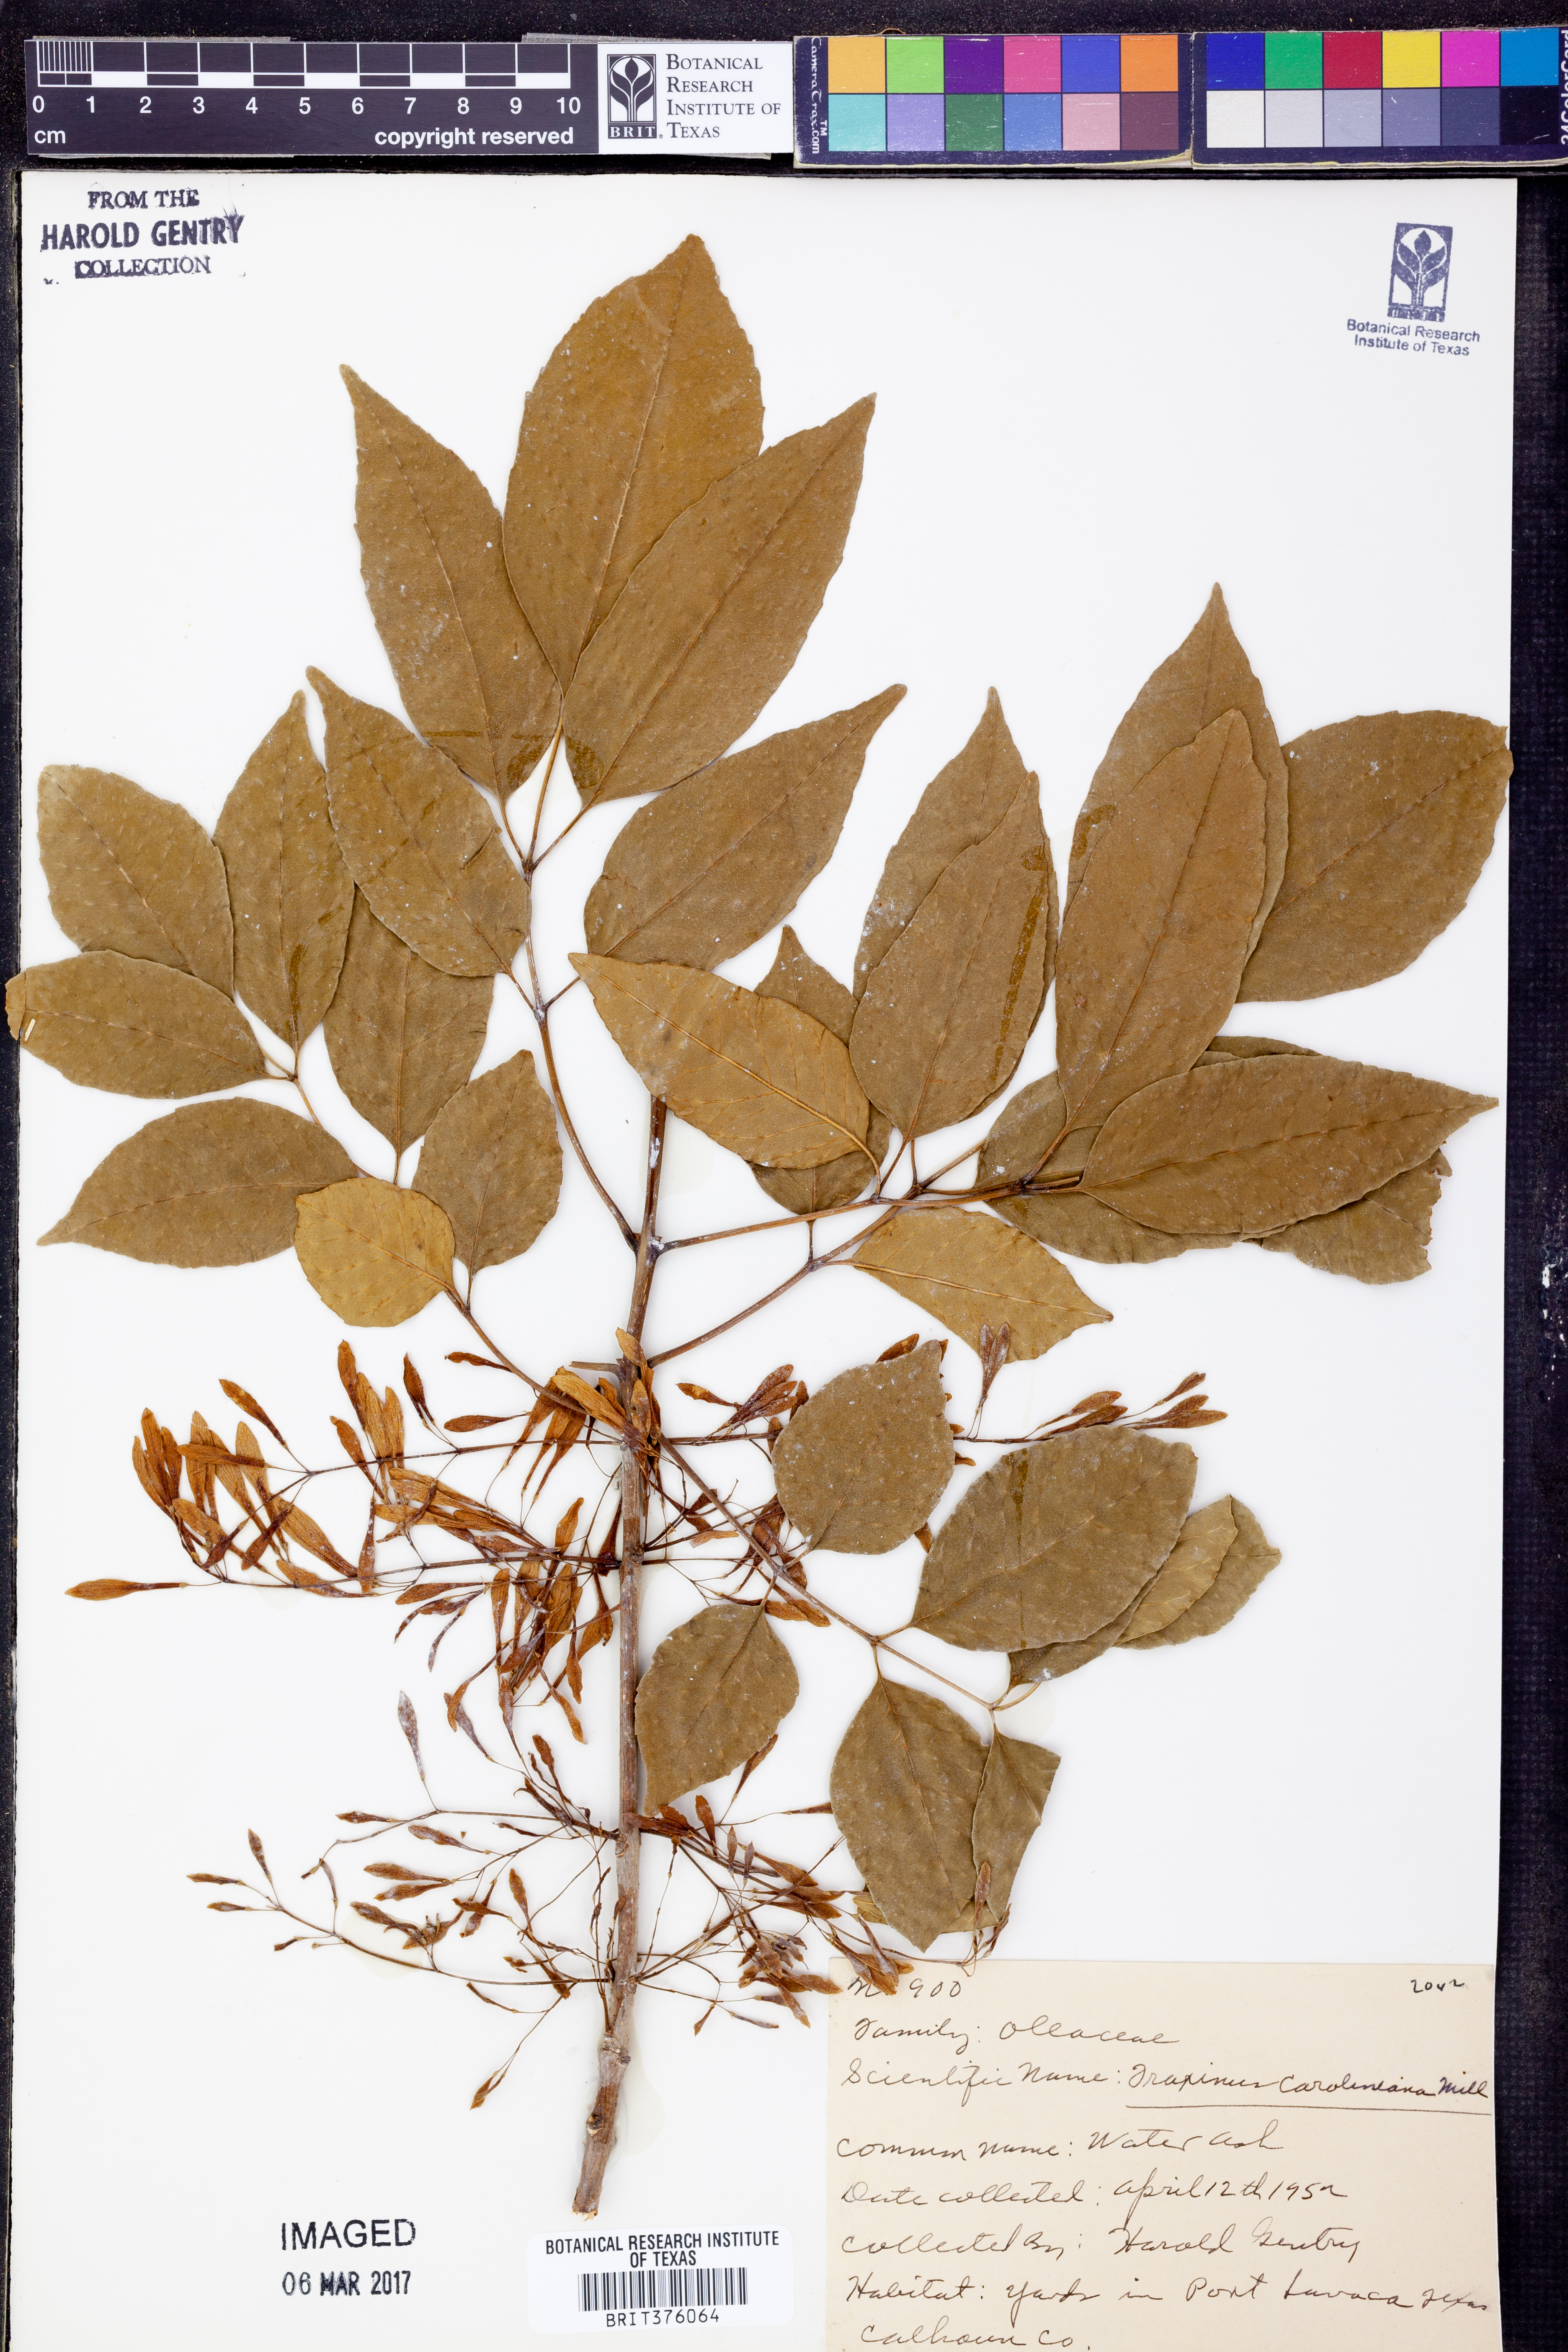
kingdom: Plantae
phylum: Tracheophyta
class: Magnoliopsida
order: Lamiales
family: Oleaceae
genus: Fraxinus
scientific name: Fraxinus caroliniana
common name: Carolina ash
